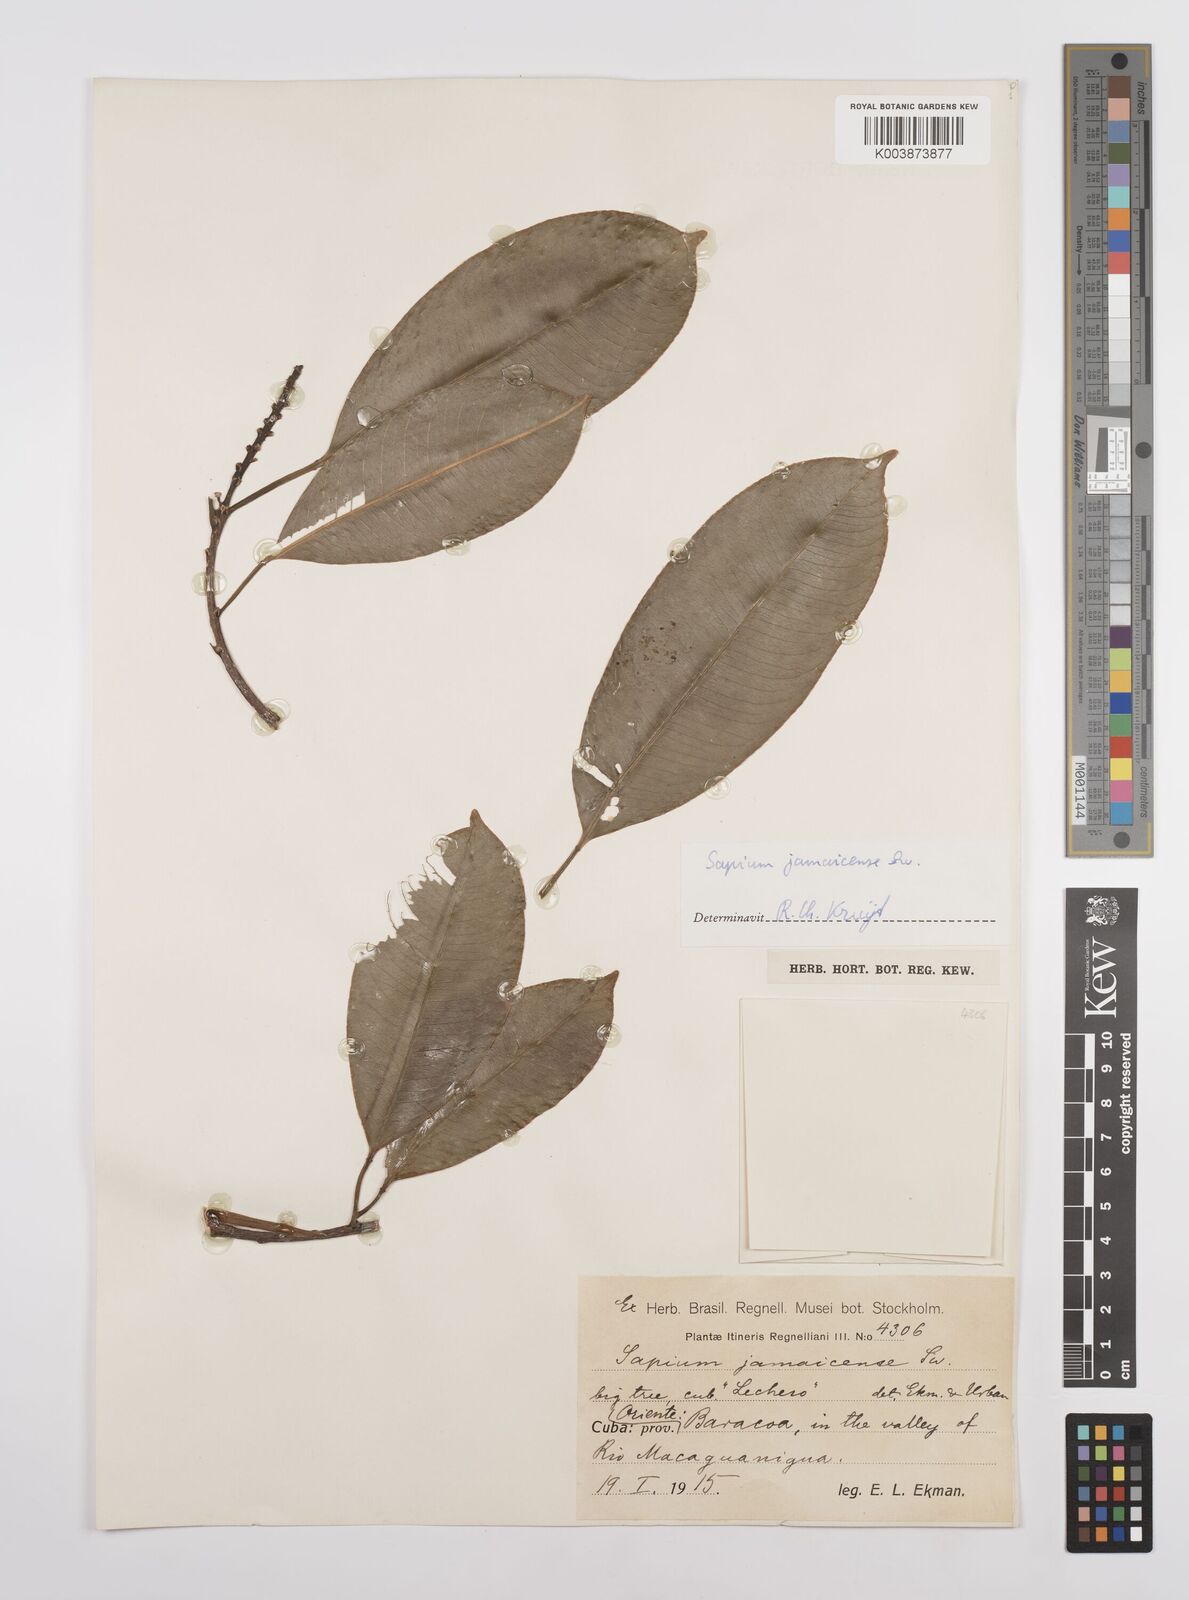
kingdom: Plantae
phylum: Tracheophyta
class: Magnoliopsida
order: Malpighiales
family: Euphorbiaceae
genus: Sapium
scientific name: Sapium glandulosum
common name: Milktree
